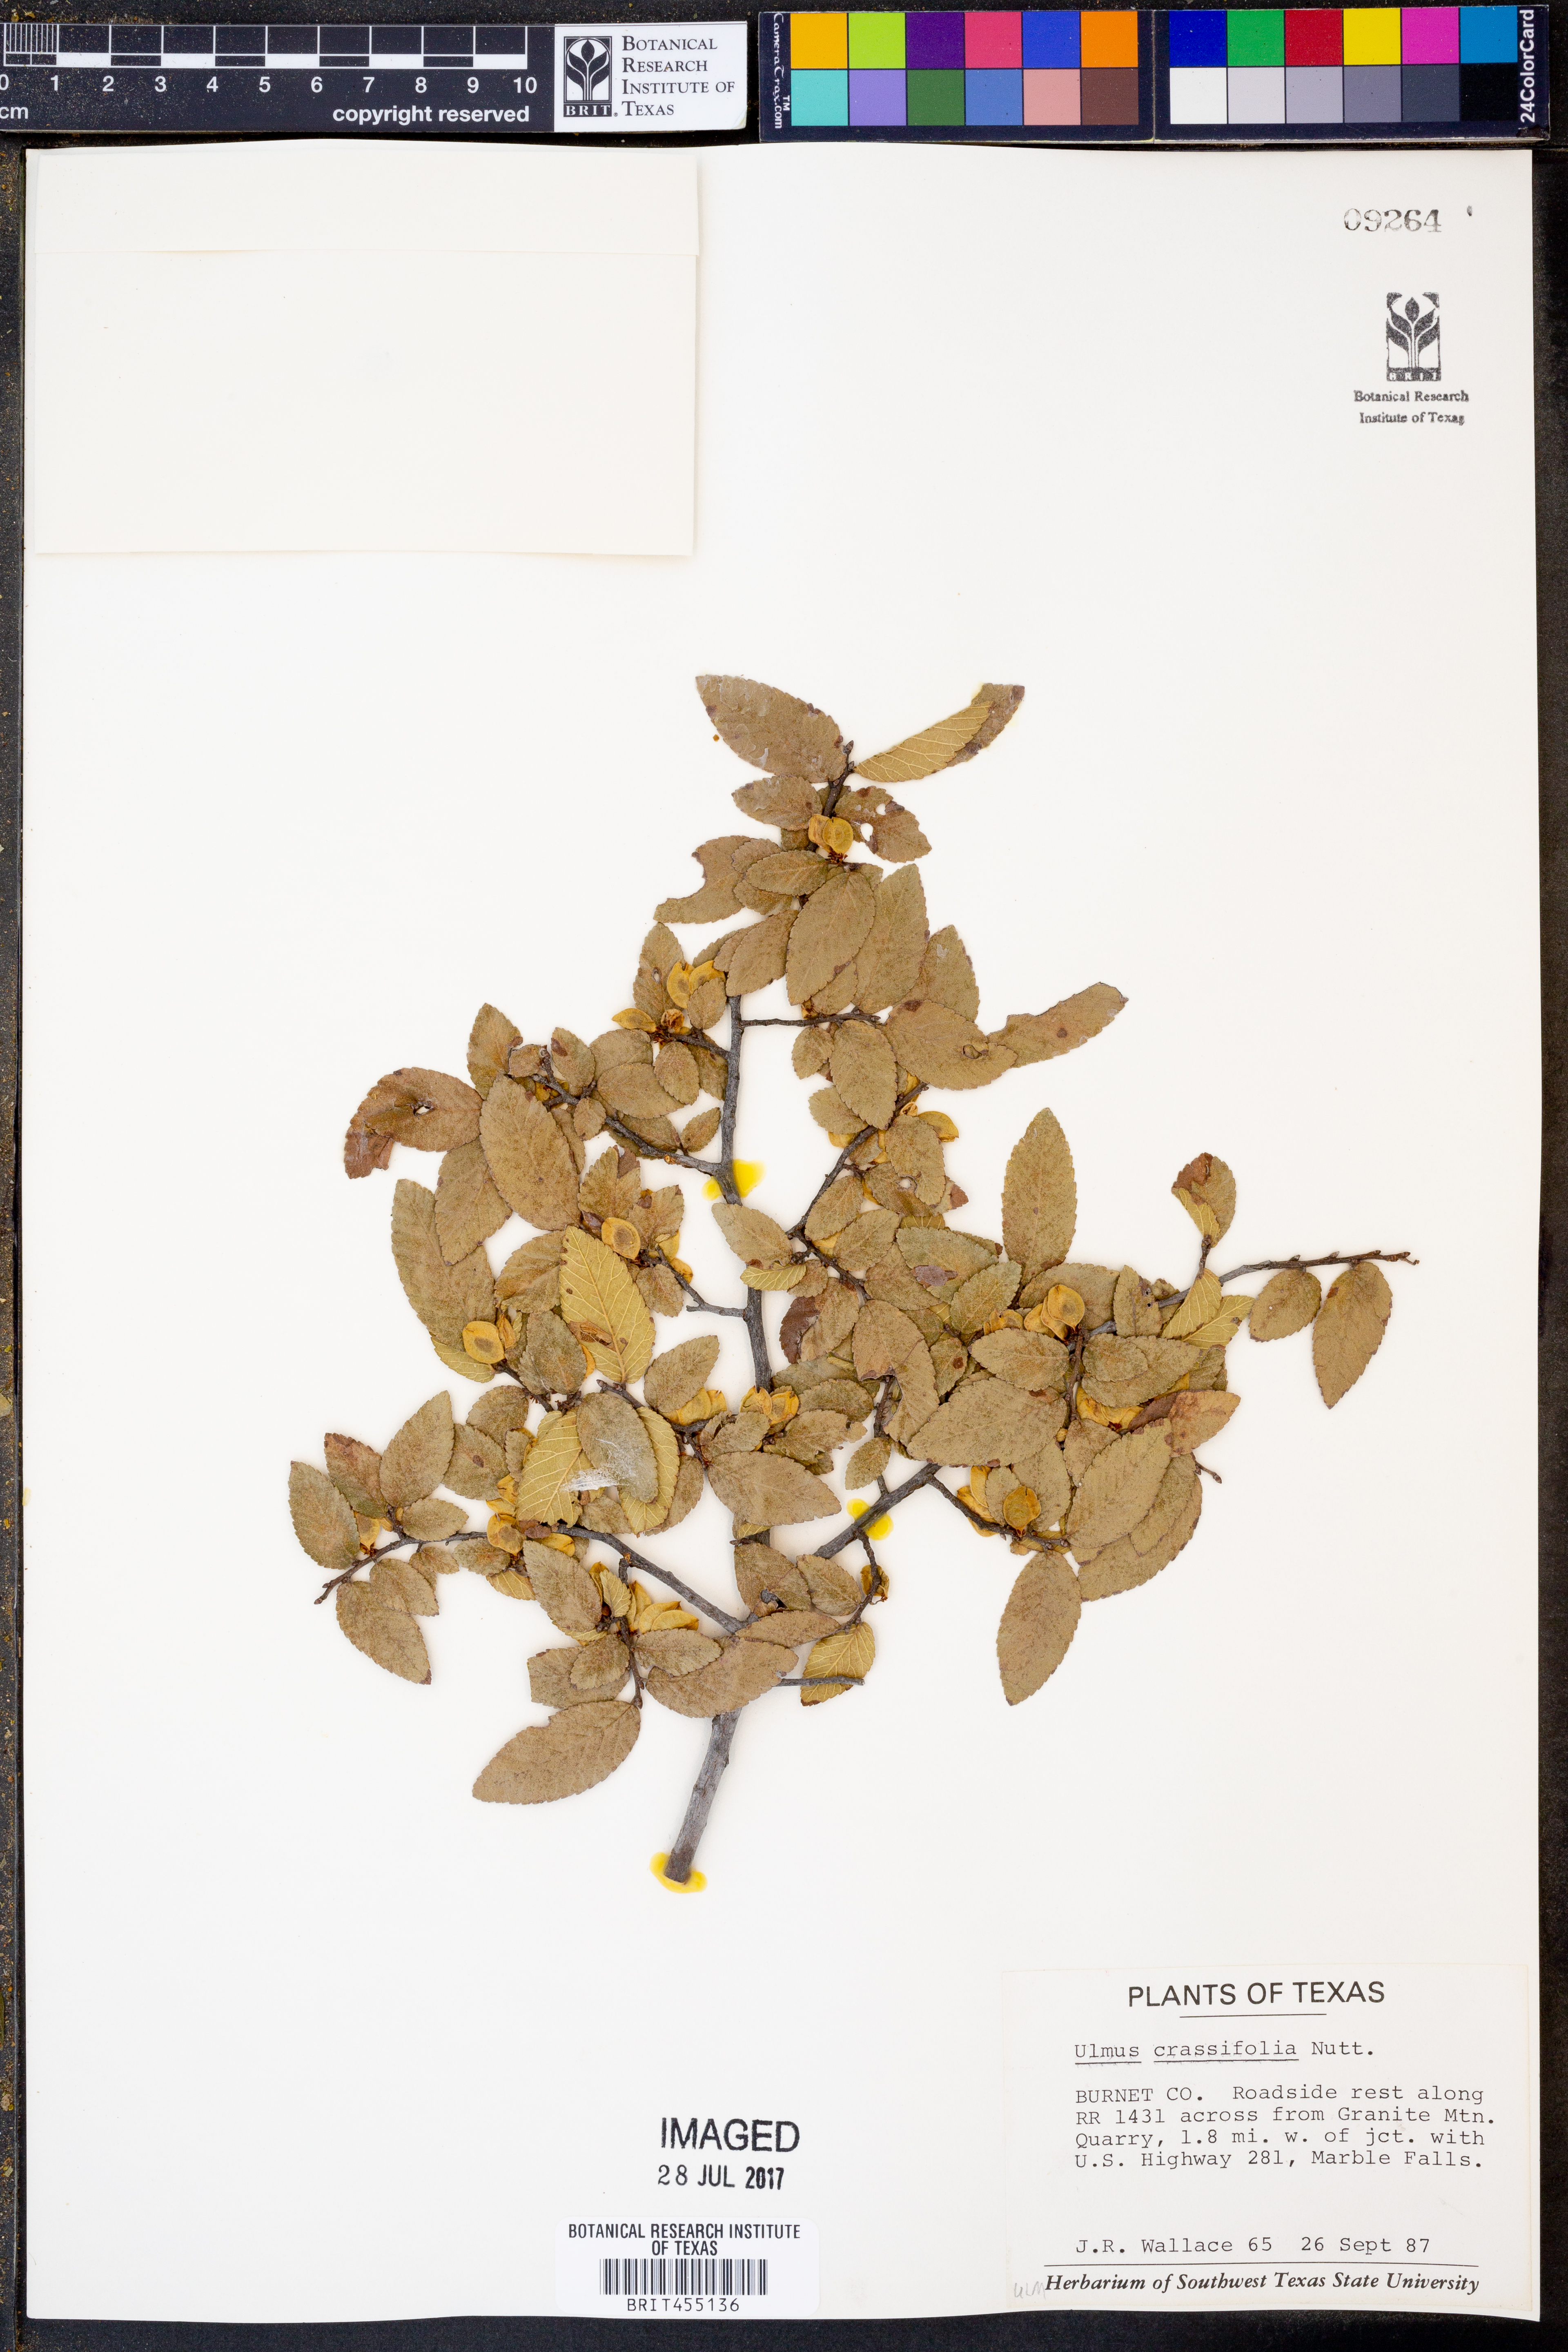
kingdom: Plantae
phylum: Tracheophyta
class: Magnoliopsida
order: Rosales
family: Ulmaceae
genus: Ulmus
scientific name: Ulmus crassifolia
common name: Basket elm
